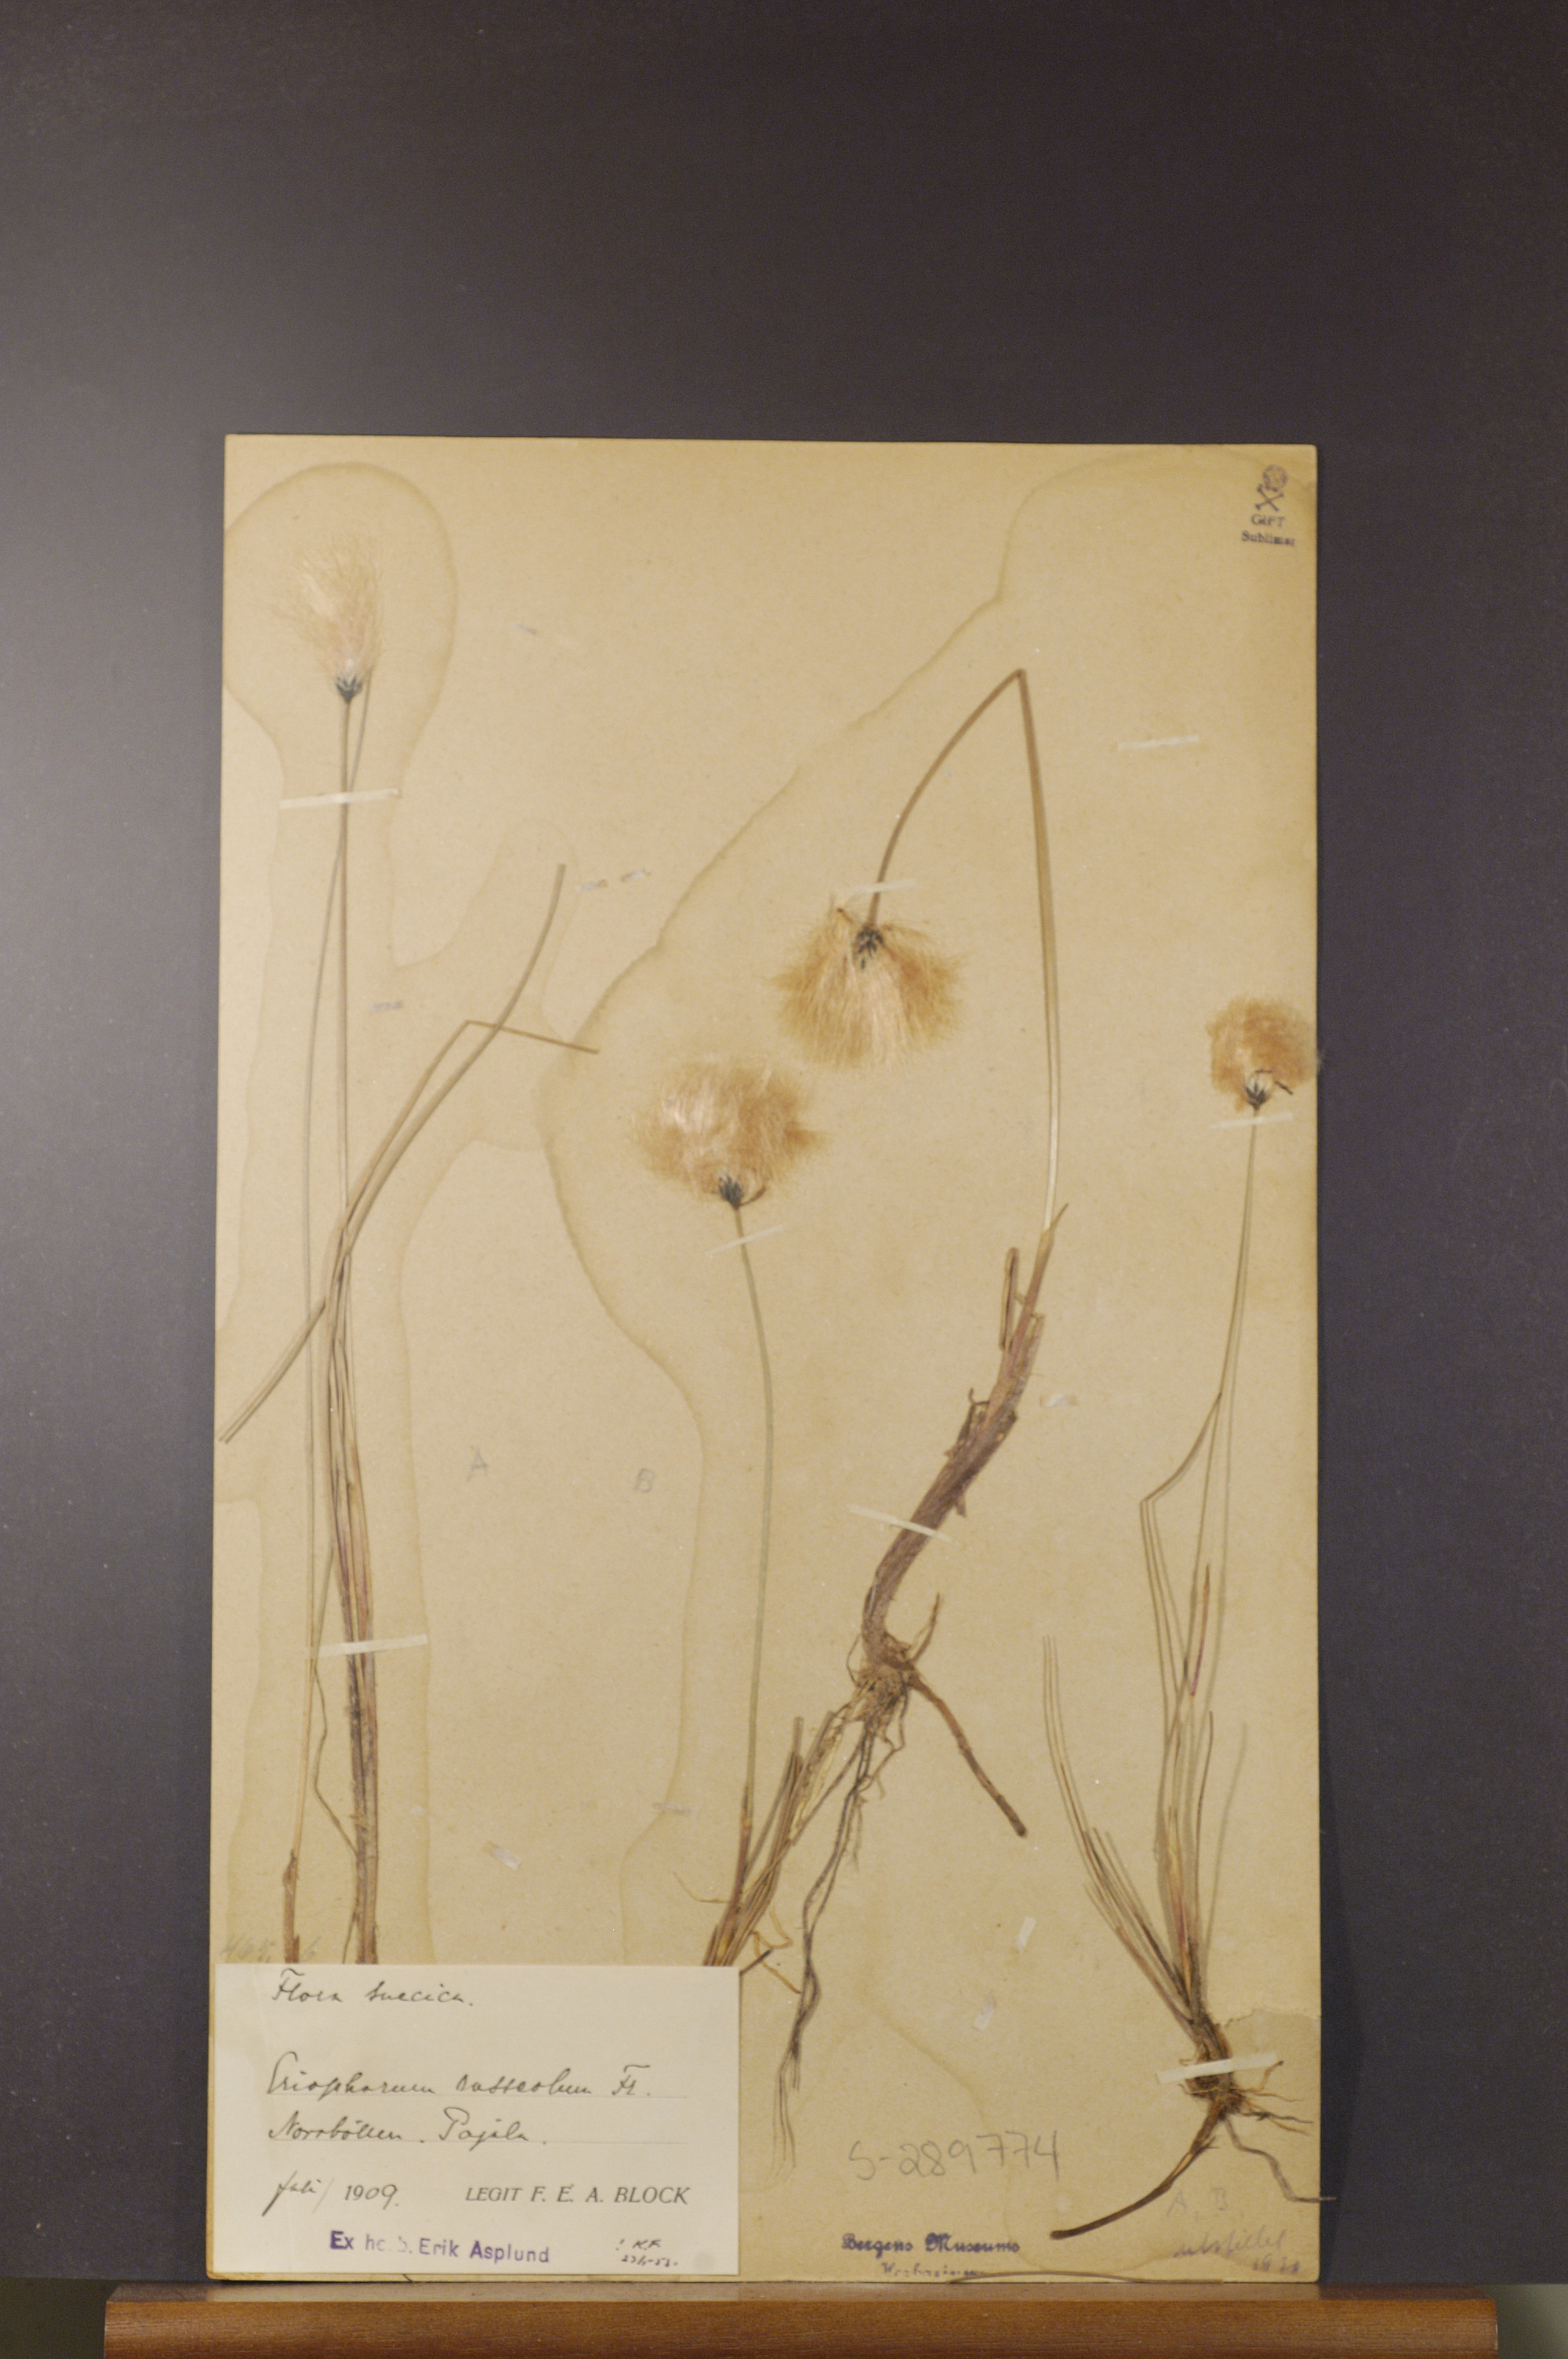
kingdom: Plantae
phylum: Tracheophyta
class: Liliopsida
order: Poales
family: Cyperaceae
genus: Eriophorum
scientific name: Eriophorum russeolum
